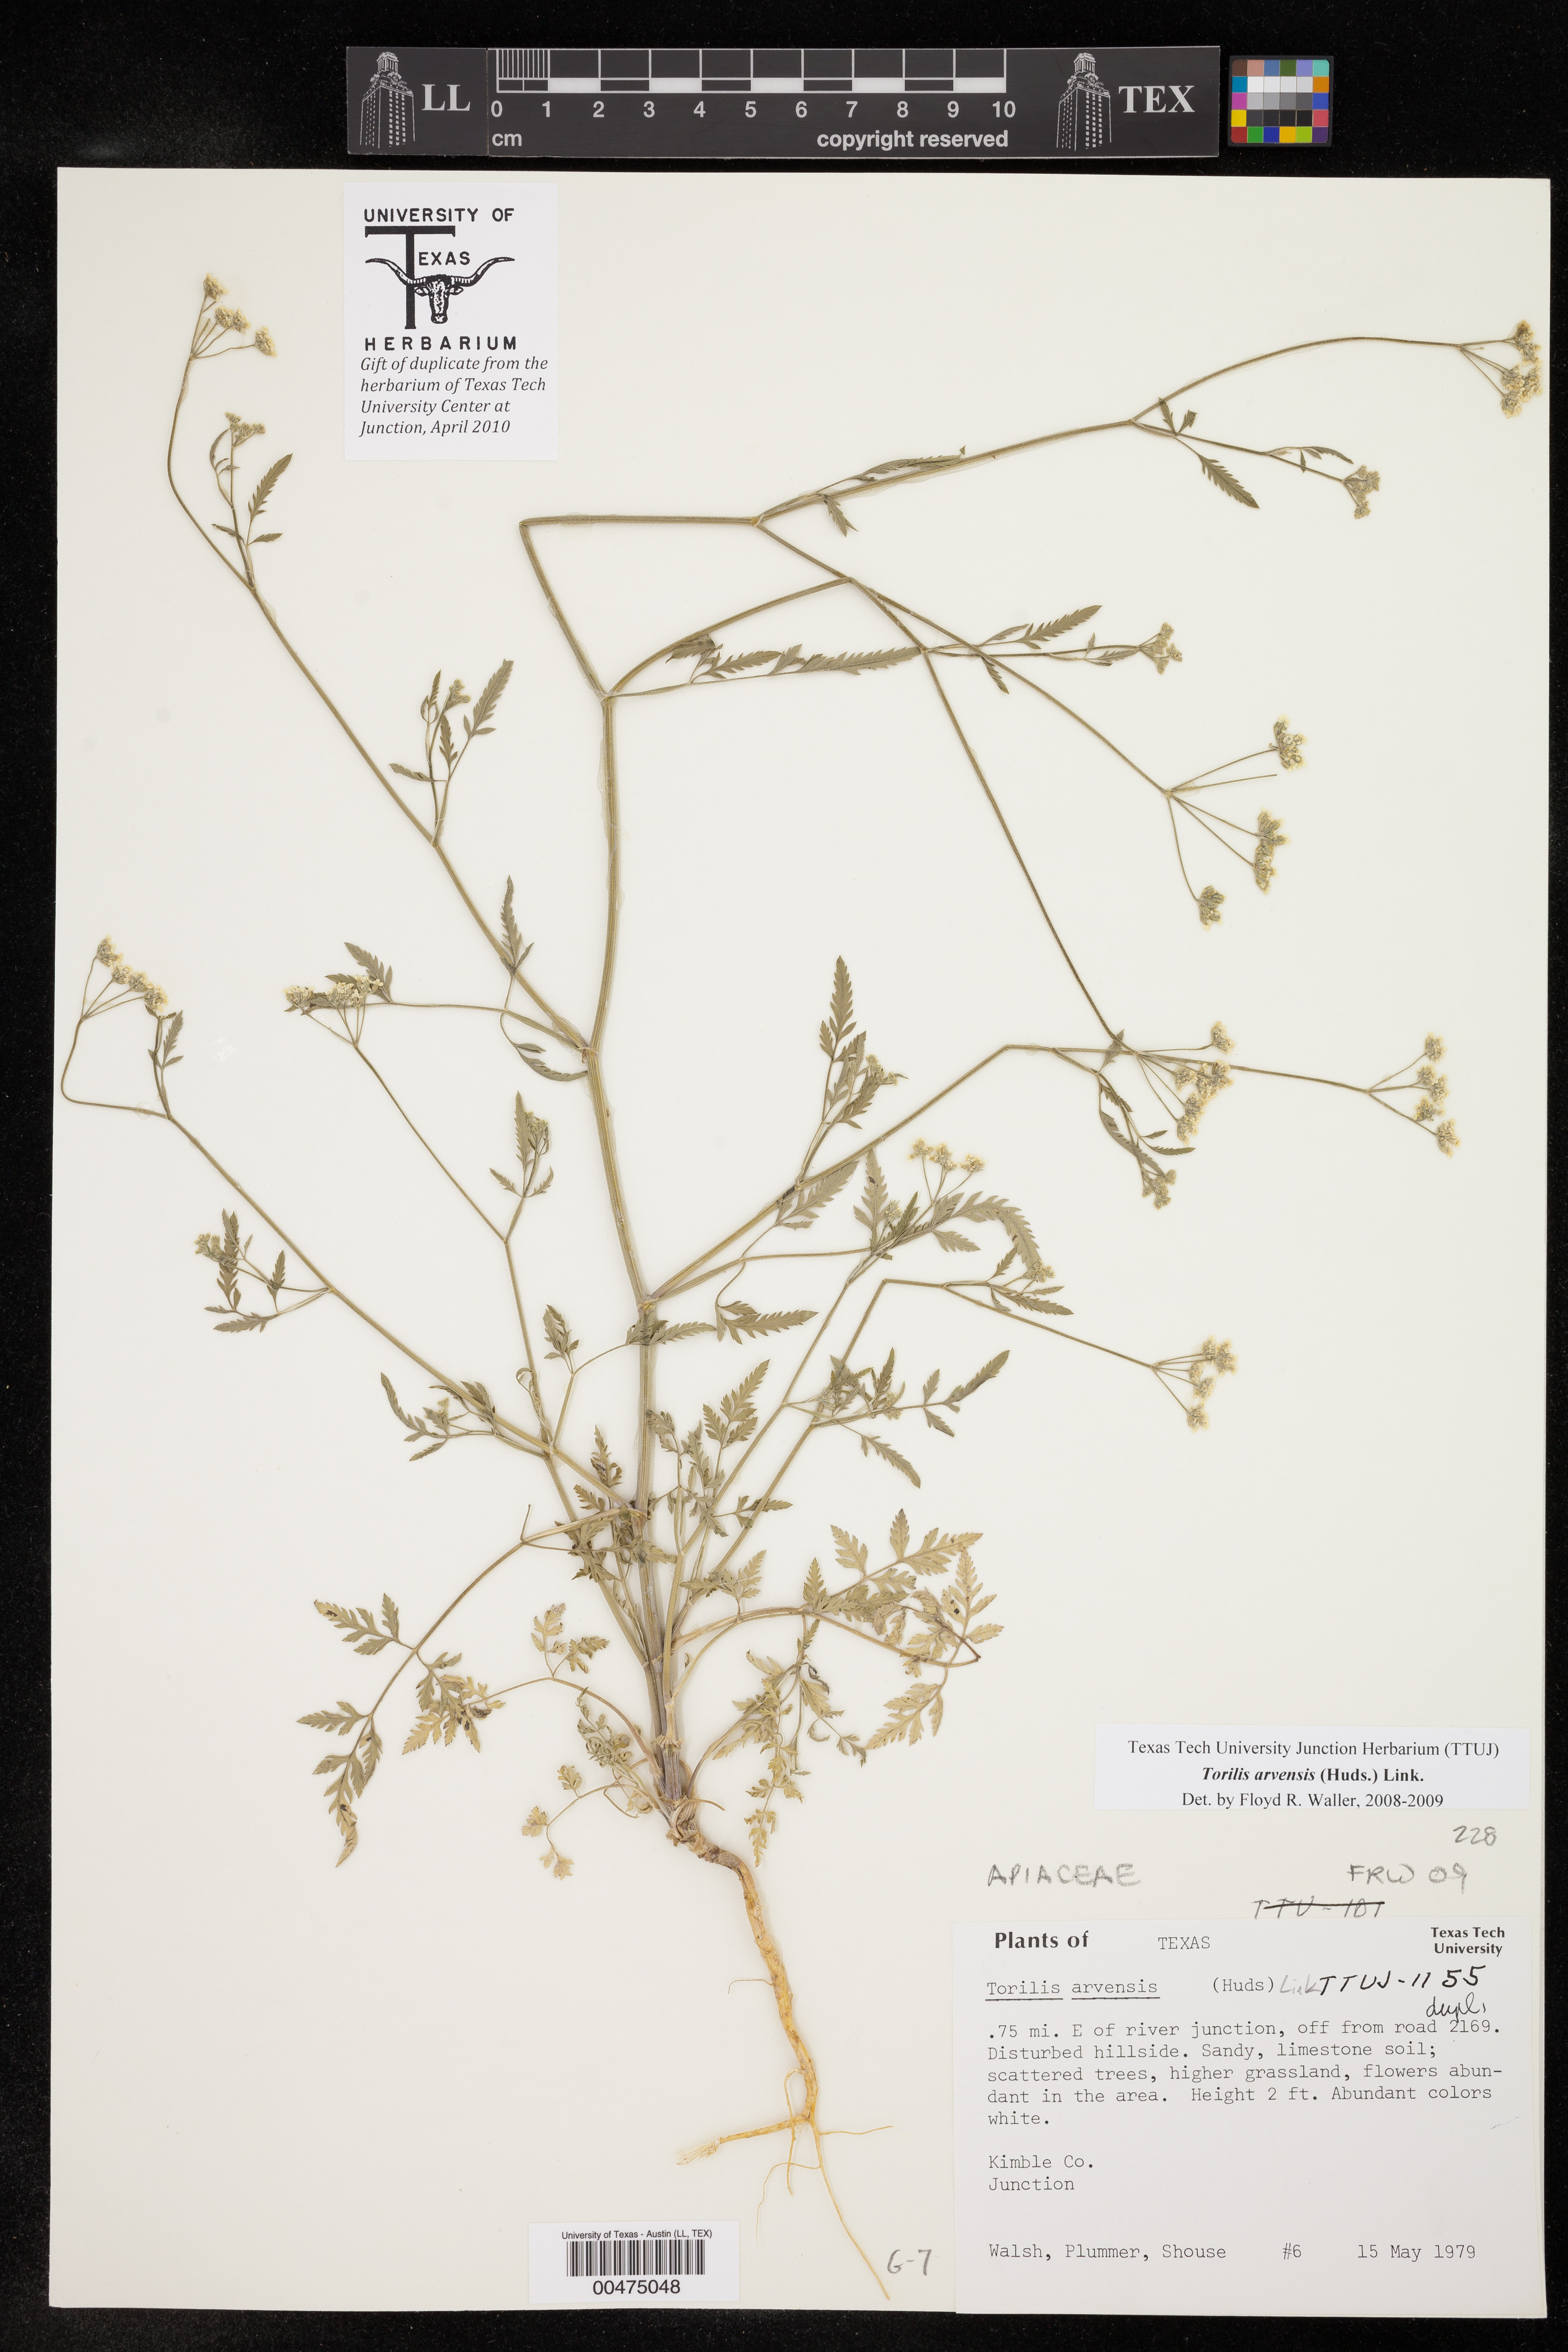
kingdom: Plantae
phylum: Tracheophyta
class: Magnoliopsida
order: Apiales
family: Apiaceae
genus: Torilis
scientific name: Torilis arvensis
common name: Spreading hedge-parsley
